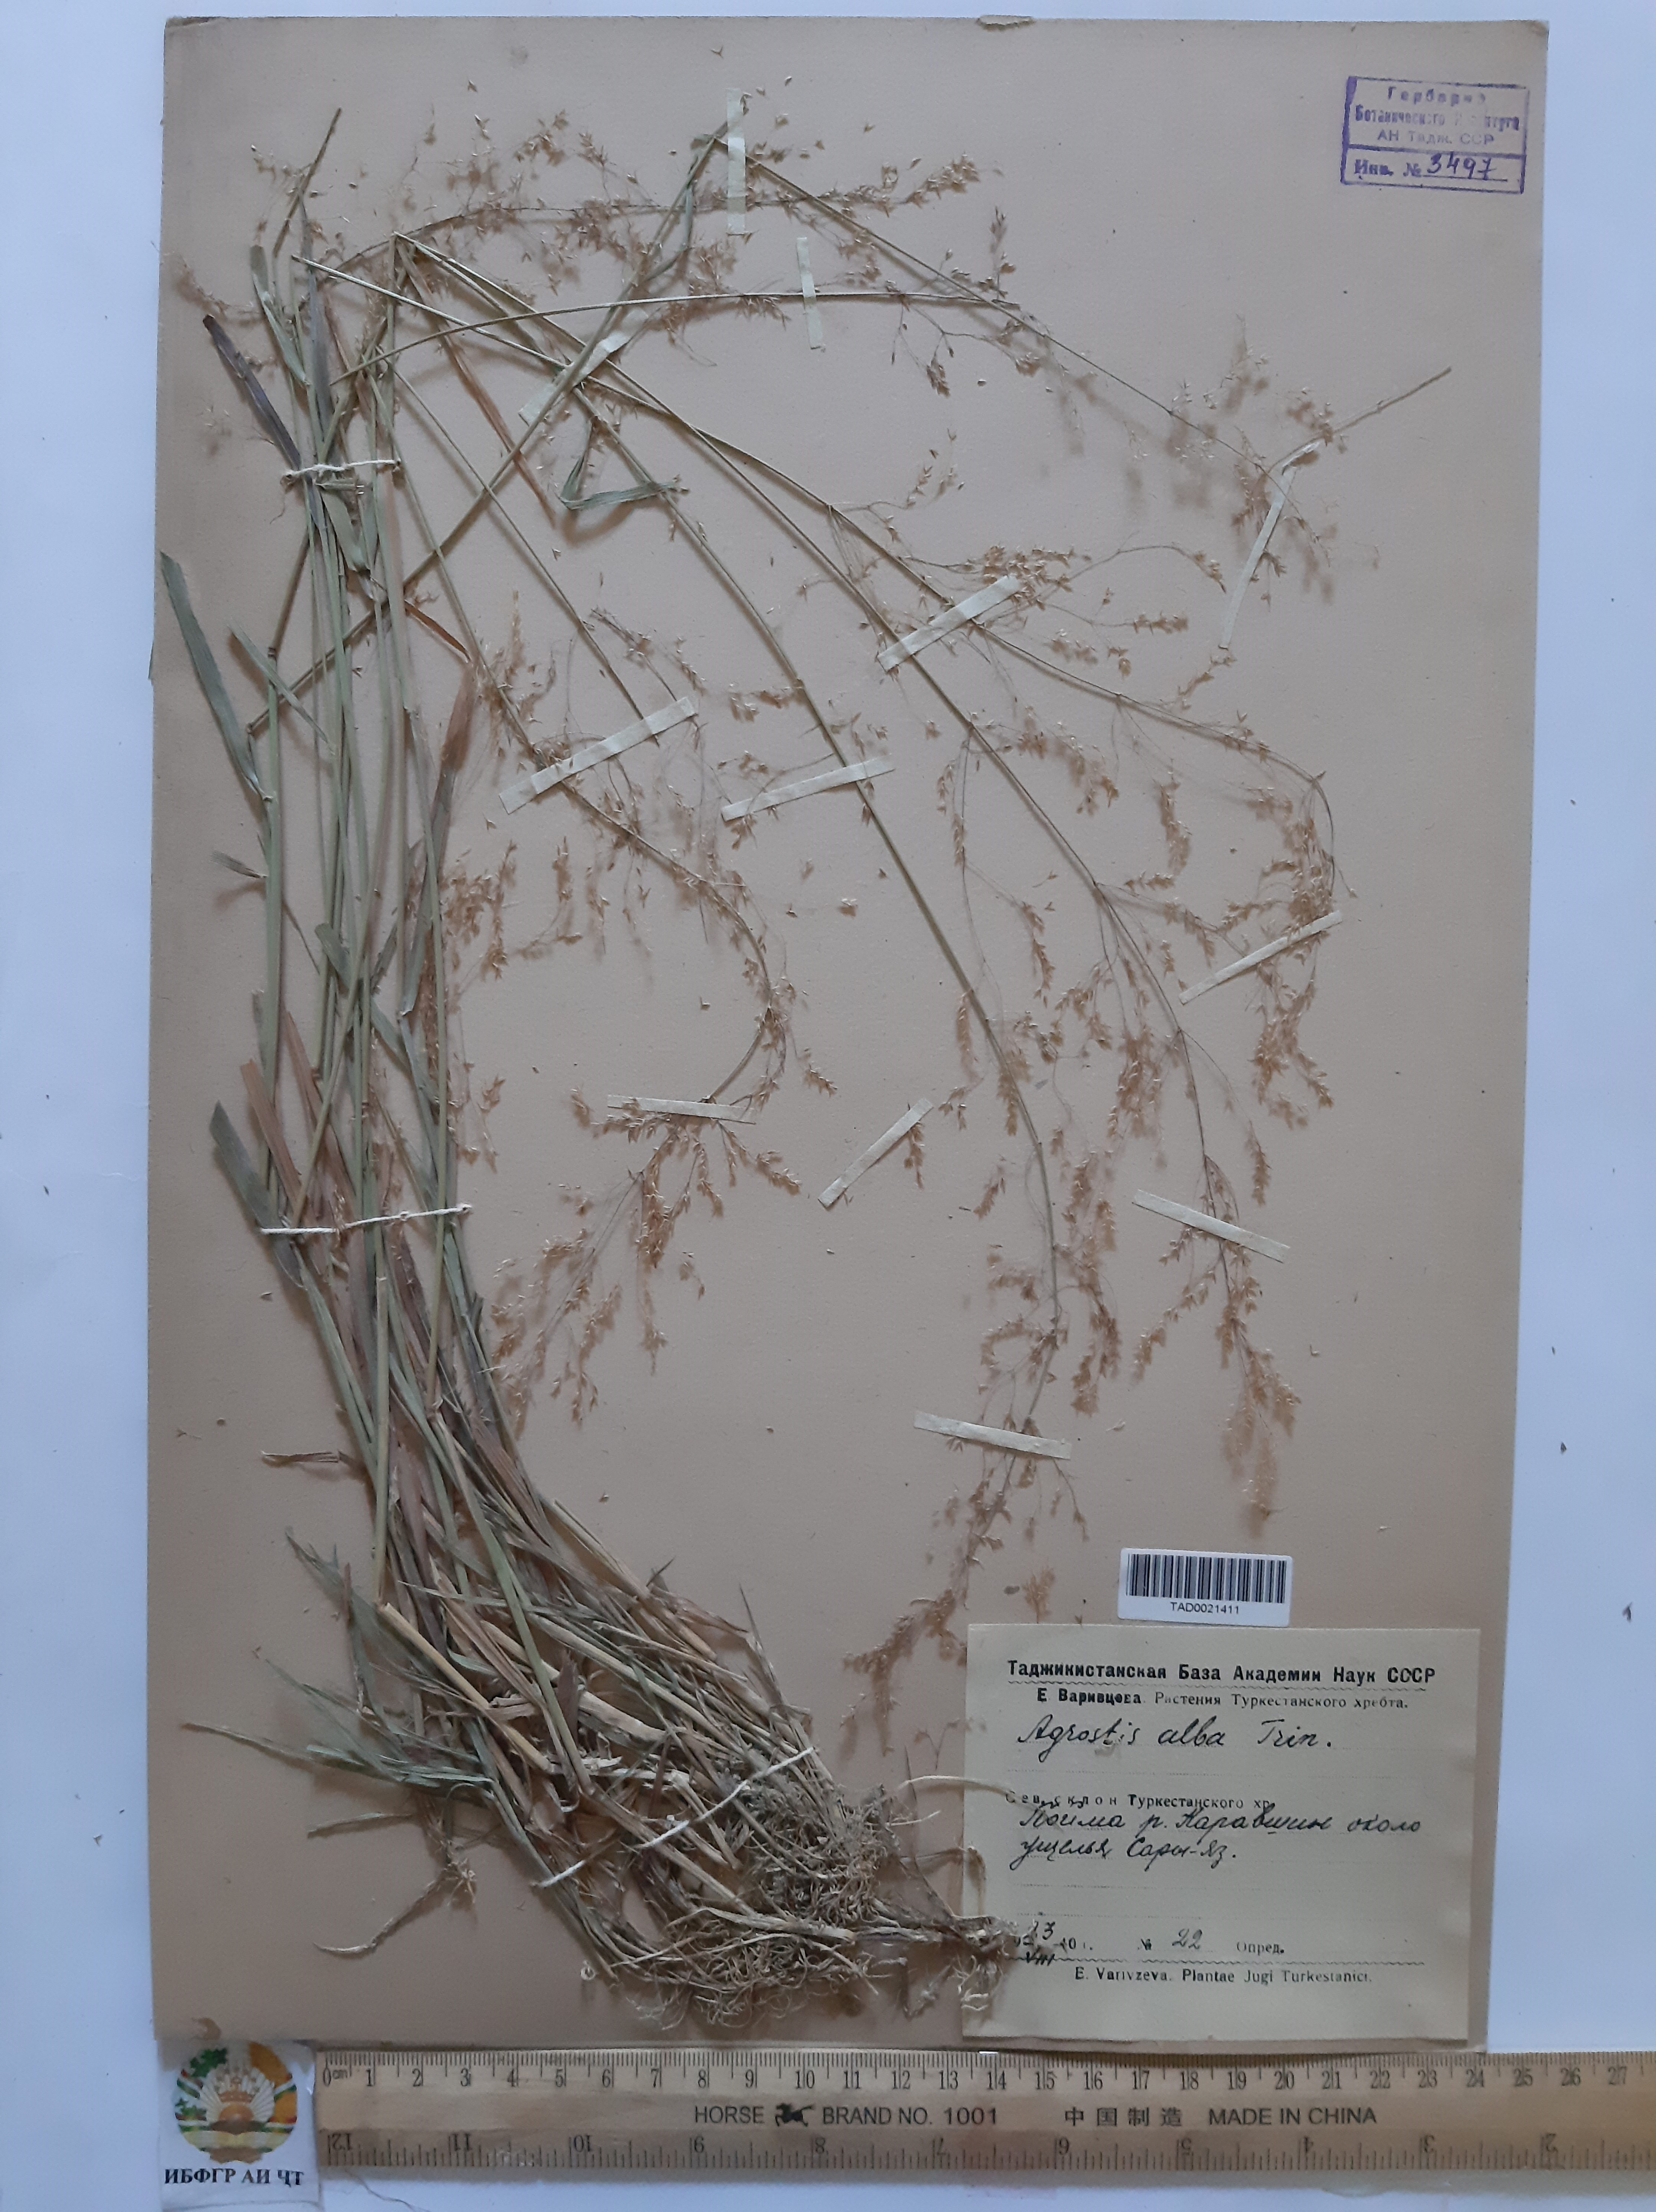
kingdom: Plantae
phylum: Tracheophyta
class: Liliopsida
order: Poales
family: Poaceae
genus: Agrostis
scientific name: Agrostis stolonifera
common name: Creeping bentgrass
